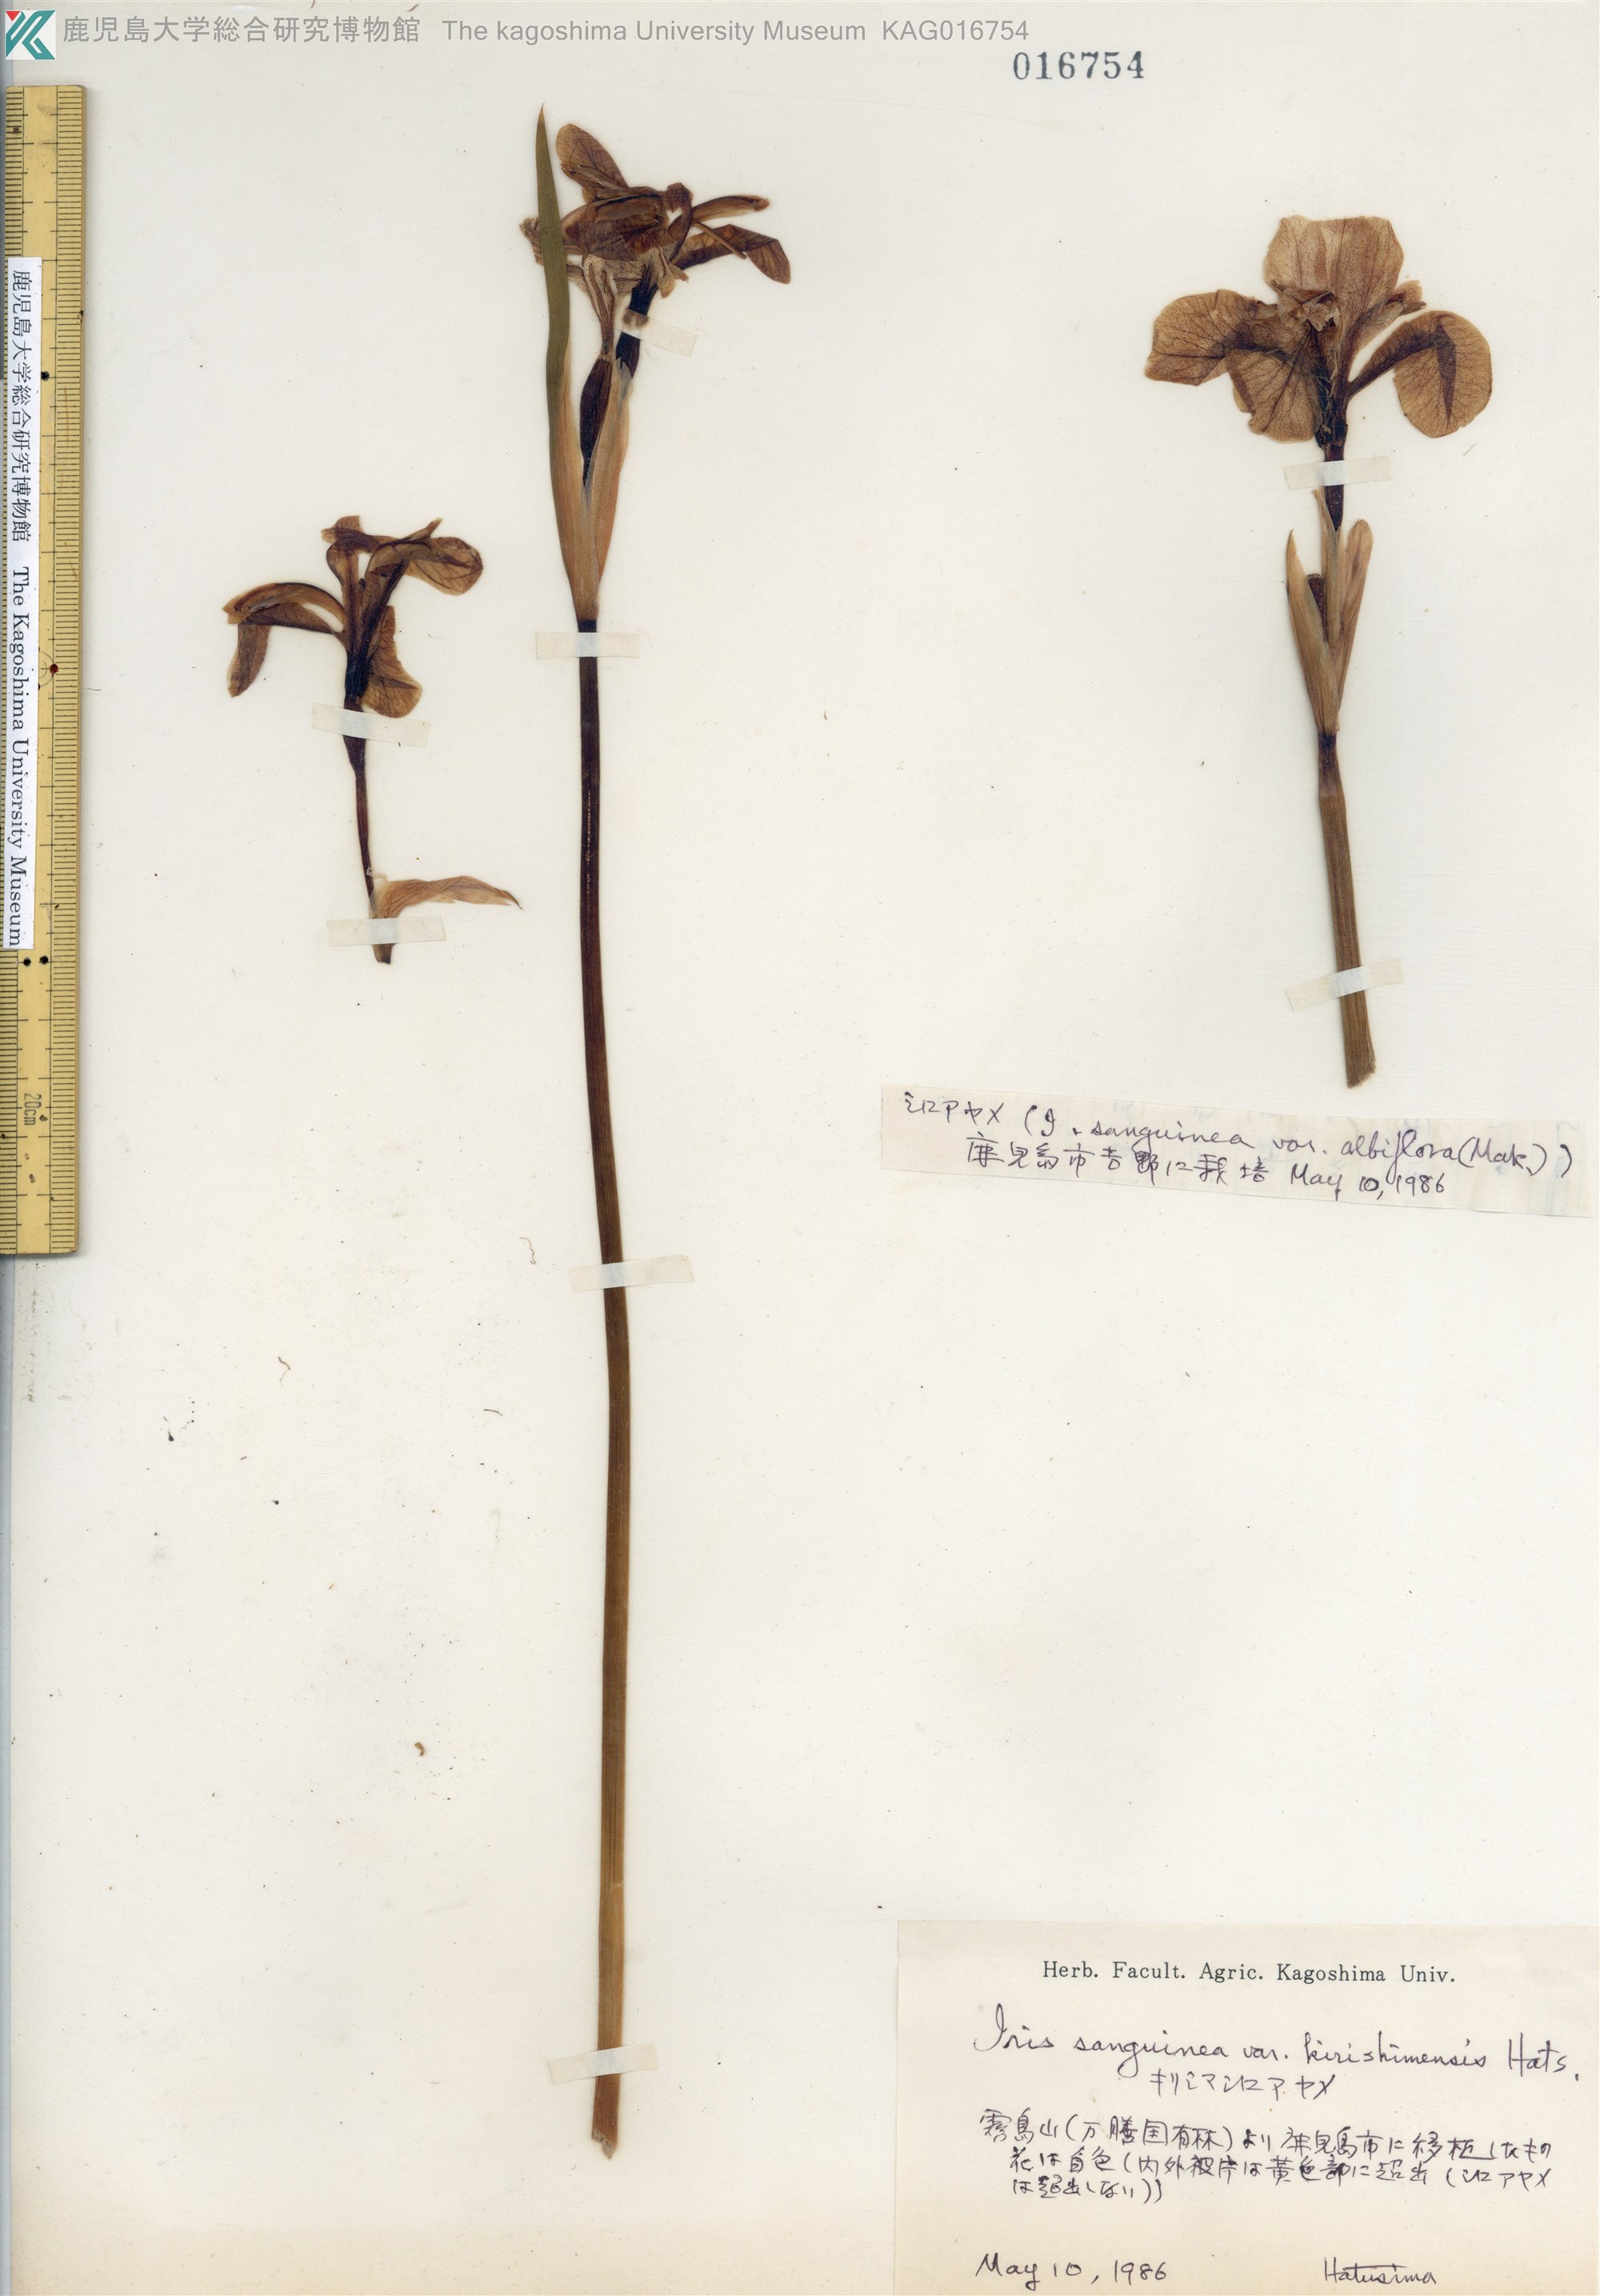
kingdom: Plantae
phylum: Tracheophyta
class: Liliopsida
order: Asparagales
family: Iridaceae
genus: Iris
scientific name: Iris sanguinea
